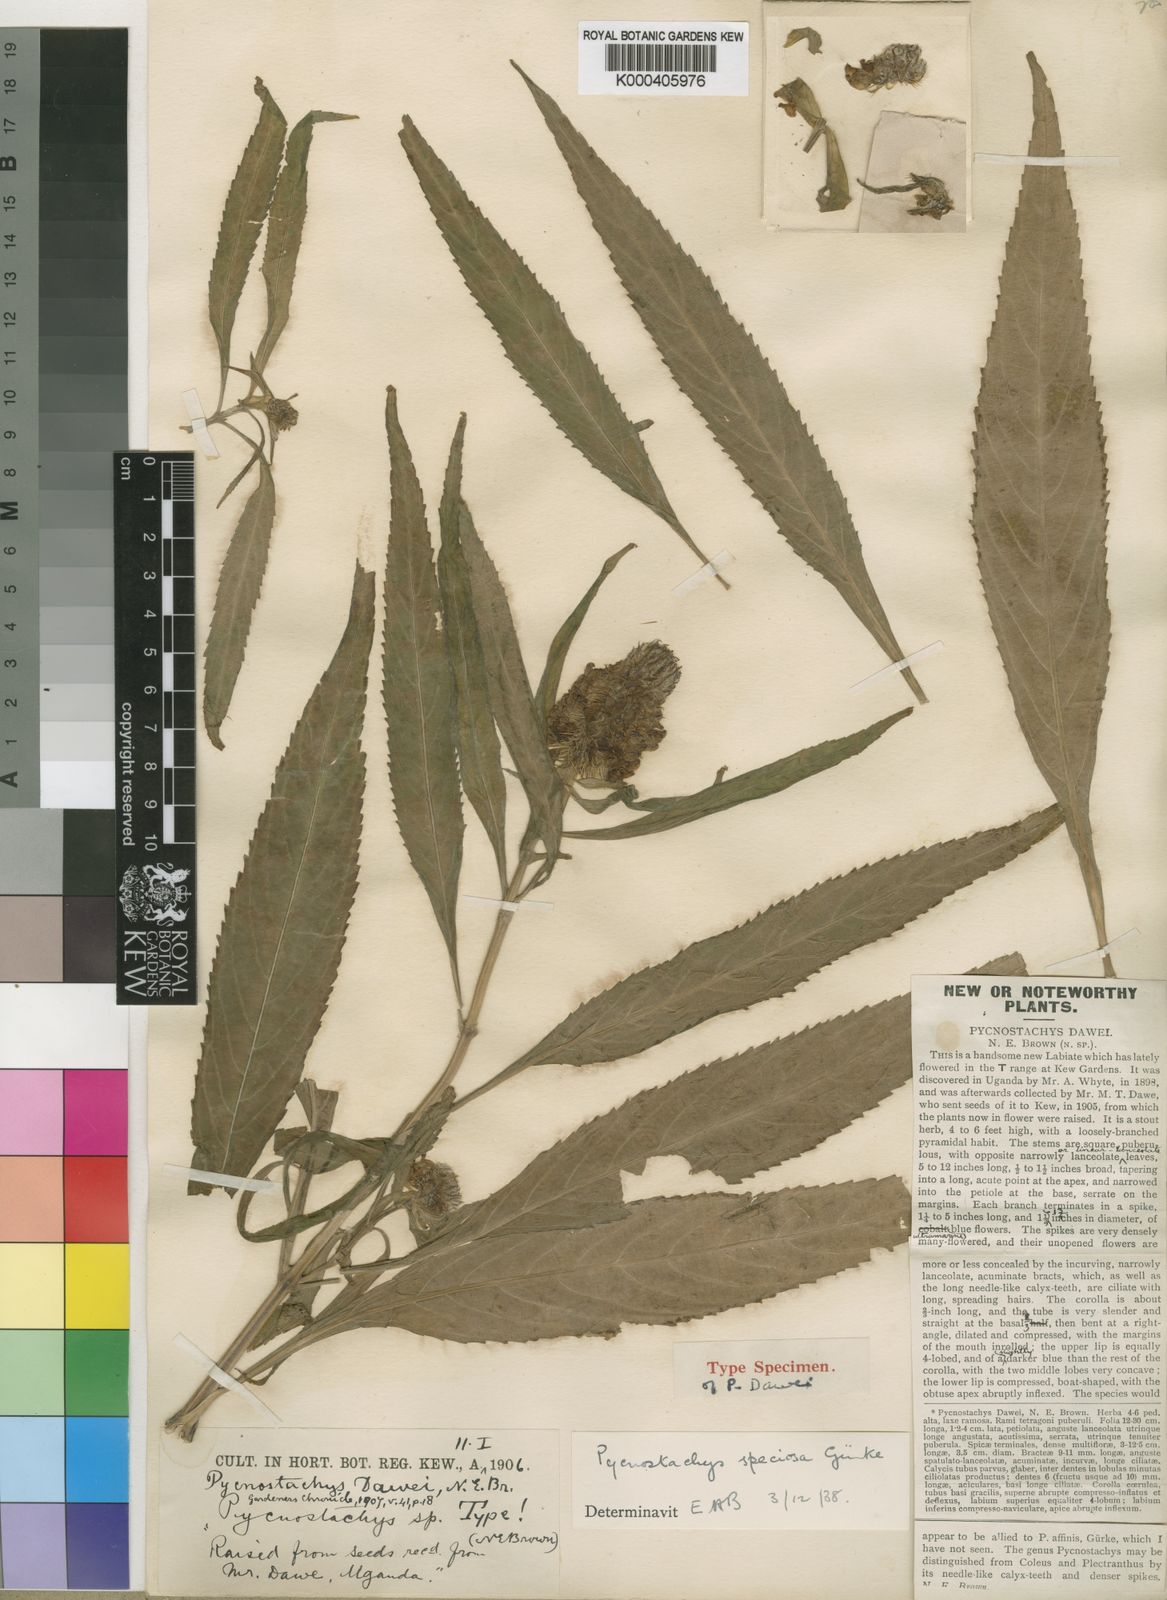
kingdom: Plantae
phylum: Tracheophyta
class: Magnoliopsida
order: Lamiales
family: Lamiaceae
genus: Coleus
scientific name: Coleus
